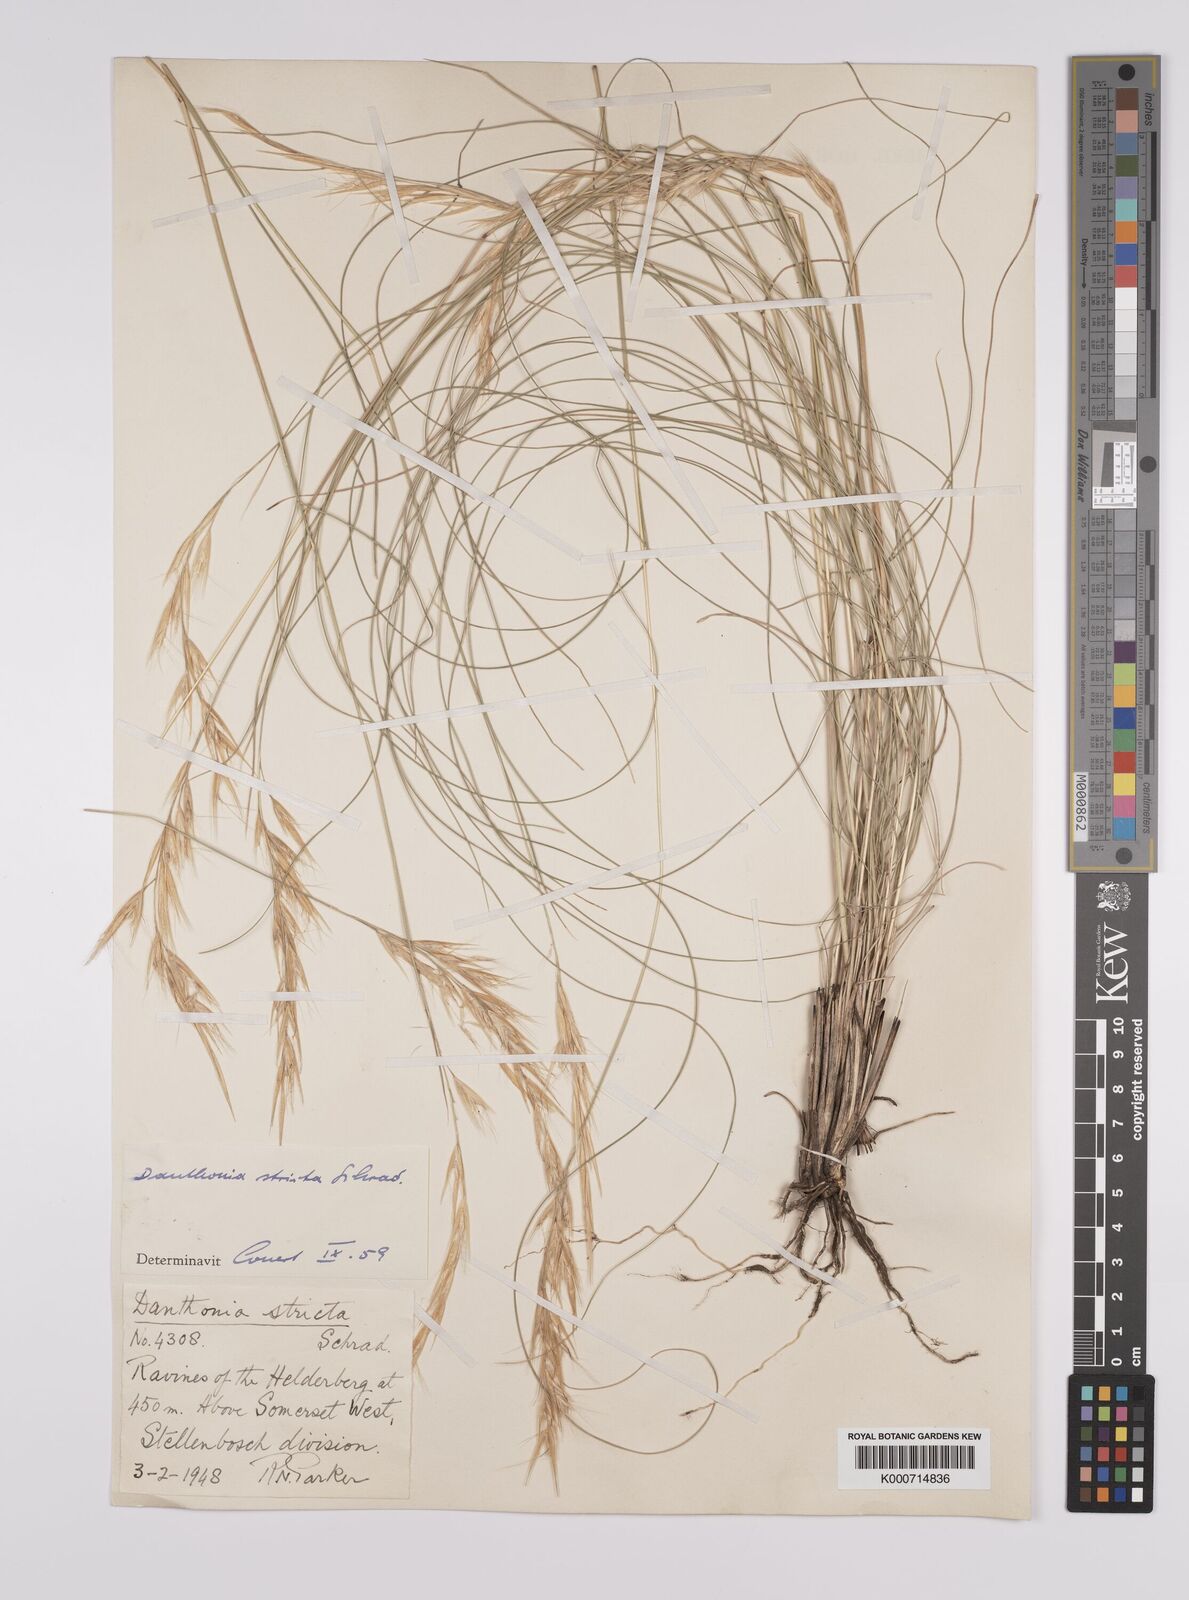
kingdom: Plantae
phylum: Tracheophyta
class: Liliopsida
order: Poales
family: Poaceae
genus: Rytidosperma
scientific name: Rytidosperma
